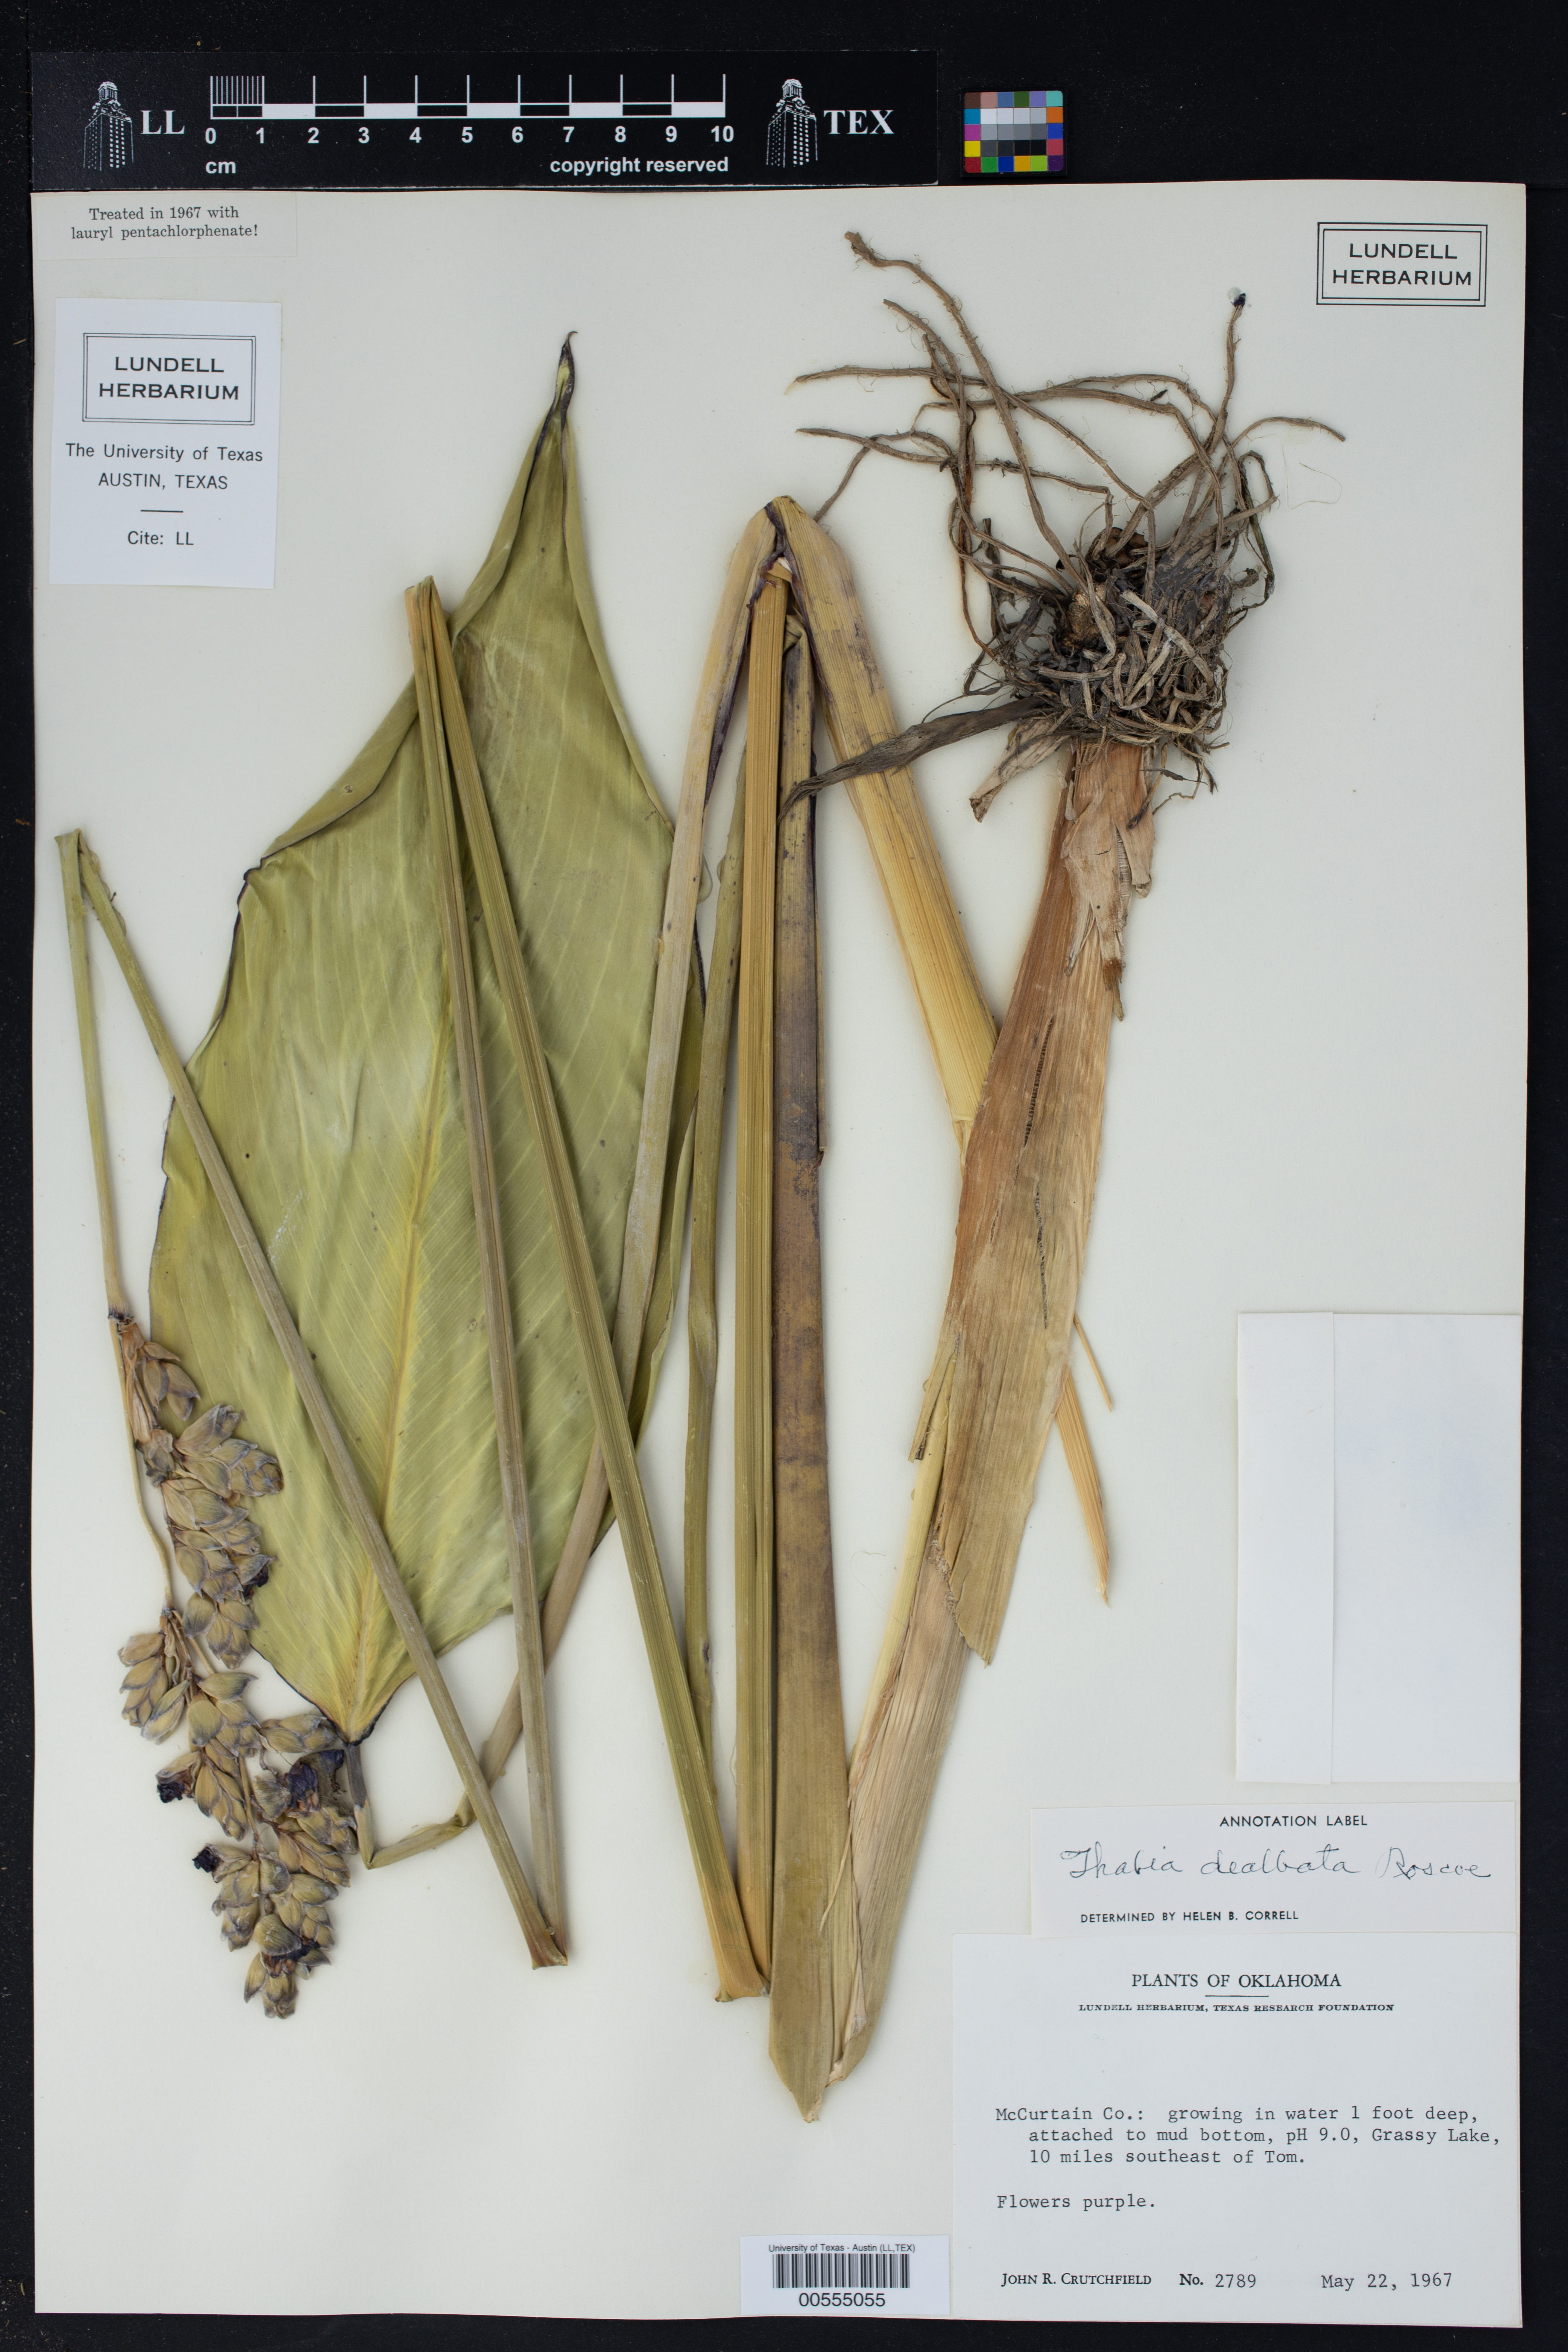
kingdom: Plantae
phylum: Tracheophyta
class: Liliopsida
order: Zingiberales
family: Marantaceae
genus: Thalia
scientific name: Thalia dealbata
